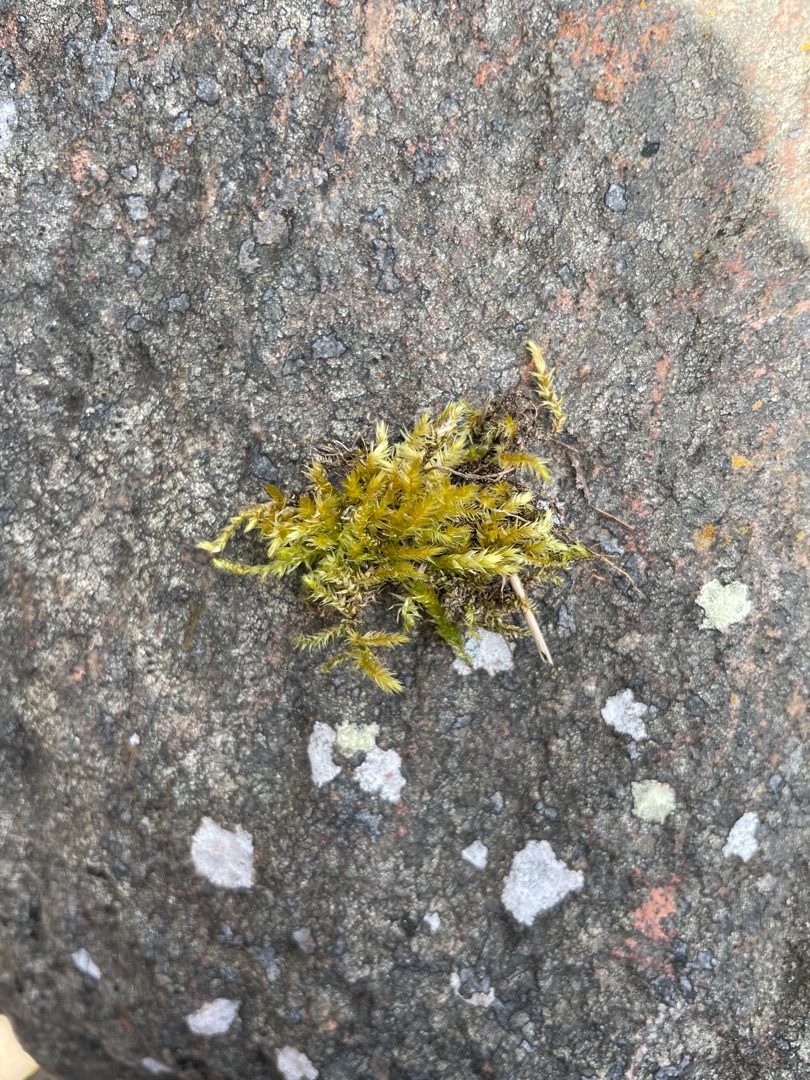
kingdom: Plantae
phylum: Bryophyta
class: Bryopsida
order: Hypnales
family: Brachytheciaceae
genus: Brachythecium
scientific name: Brachythecium rutabulum
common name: Almindelig kortkapsel
